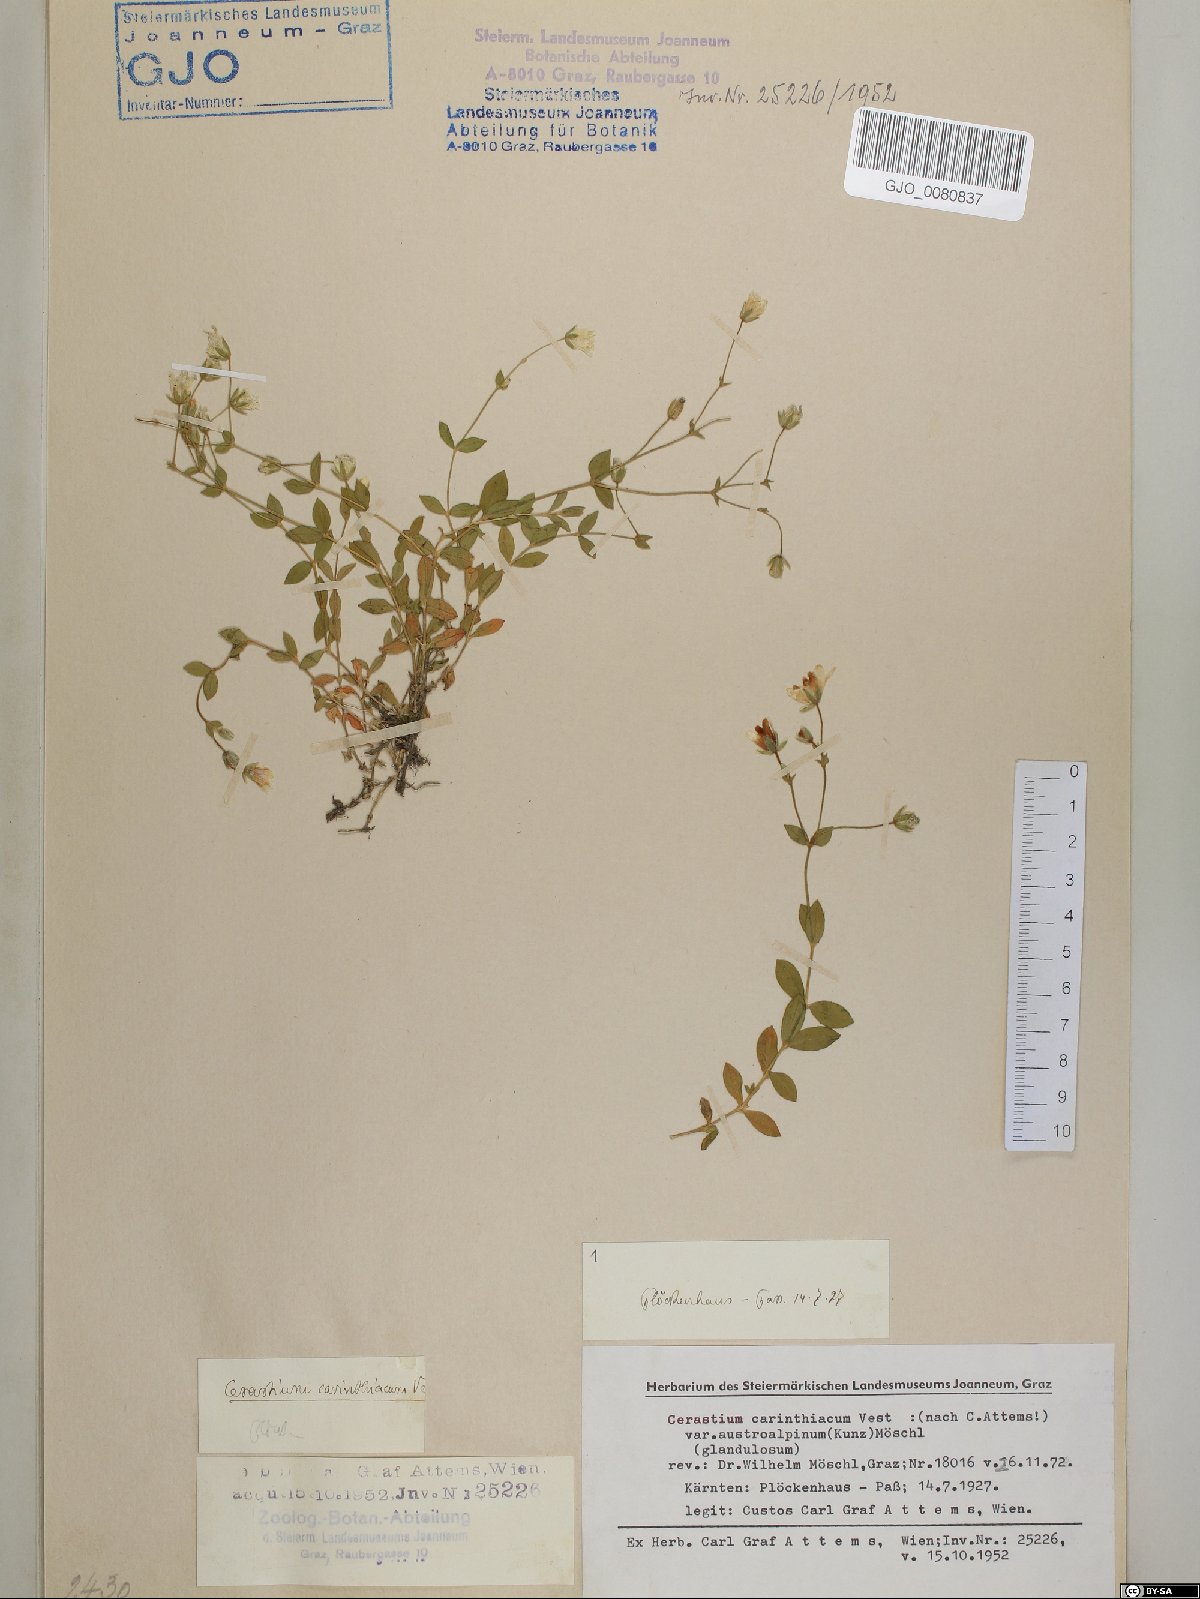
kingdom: Plantae
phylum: Tracheophyta
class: Magnoliopsida
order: Caryophyllales
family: Caryophyllaceae
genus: Cerastium
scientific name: Cerastium carinthiacum
